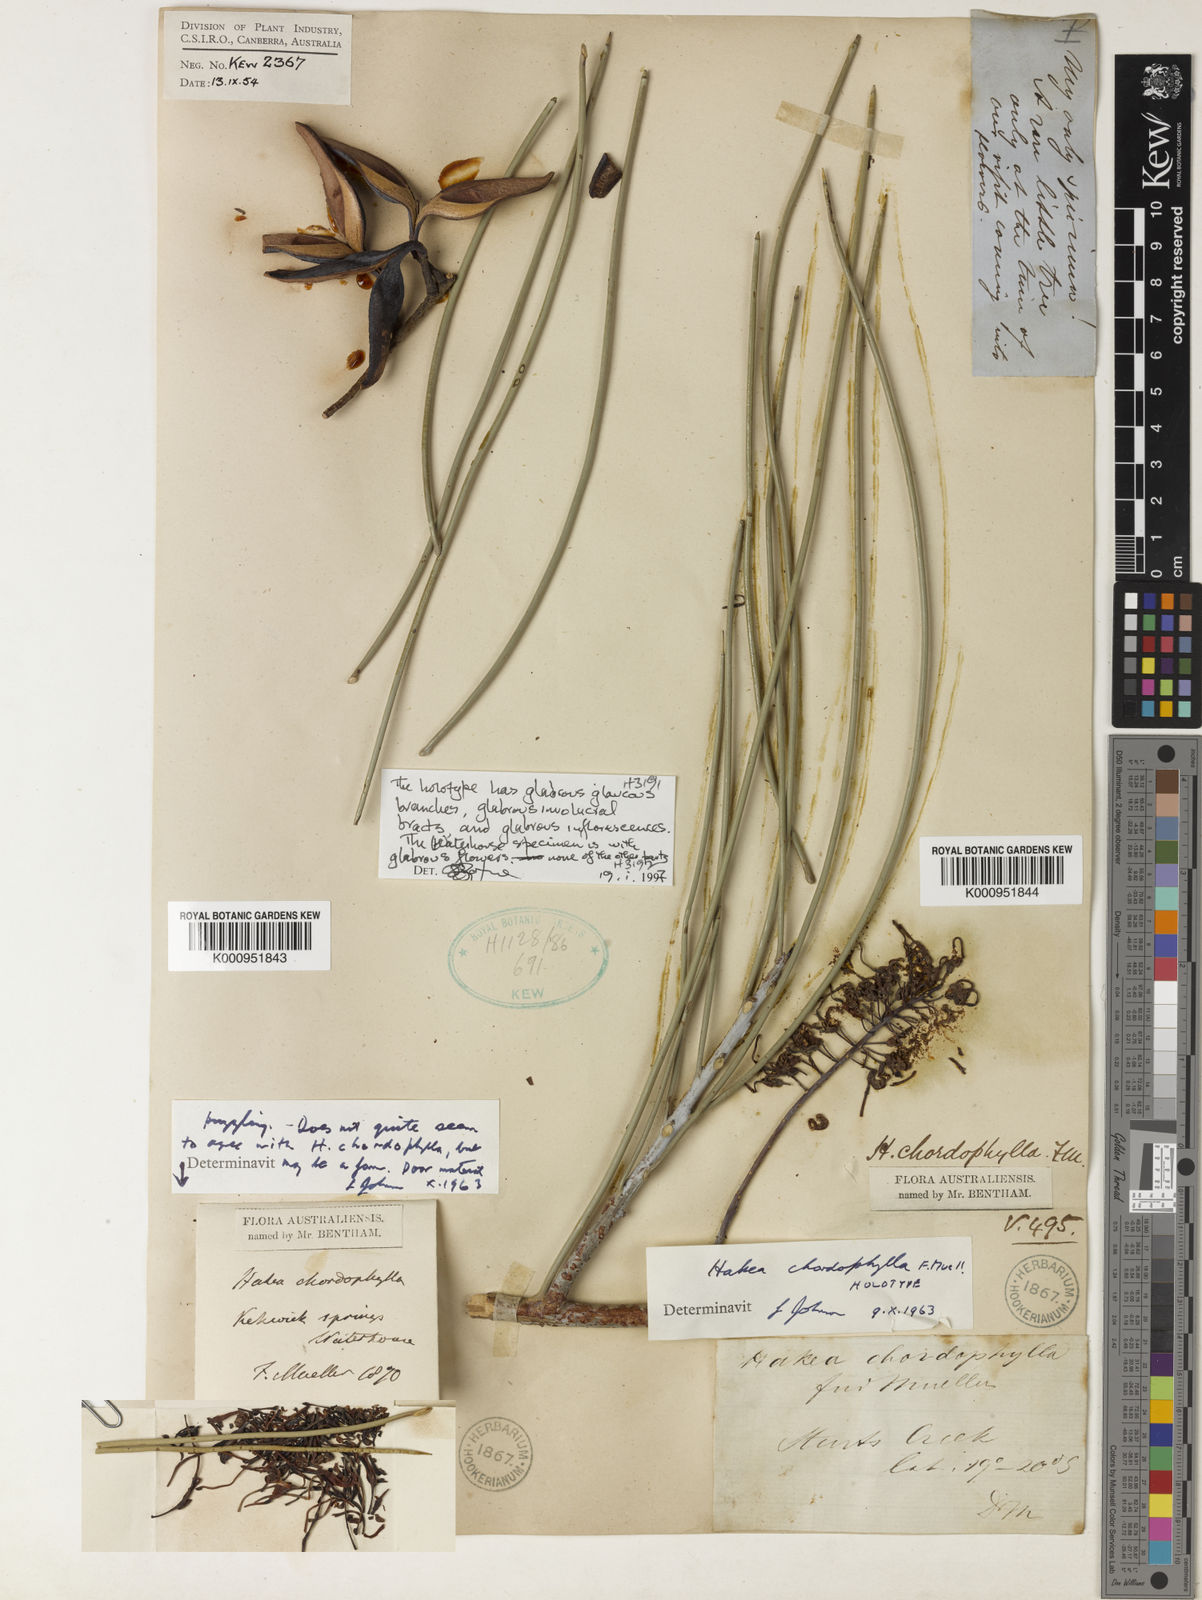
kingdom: Plantae
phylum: Tracheophyta
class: Magnoliopsida
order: Proteales
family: Proteaceae
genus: Hakea
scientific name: Hakea chordophylla
